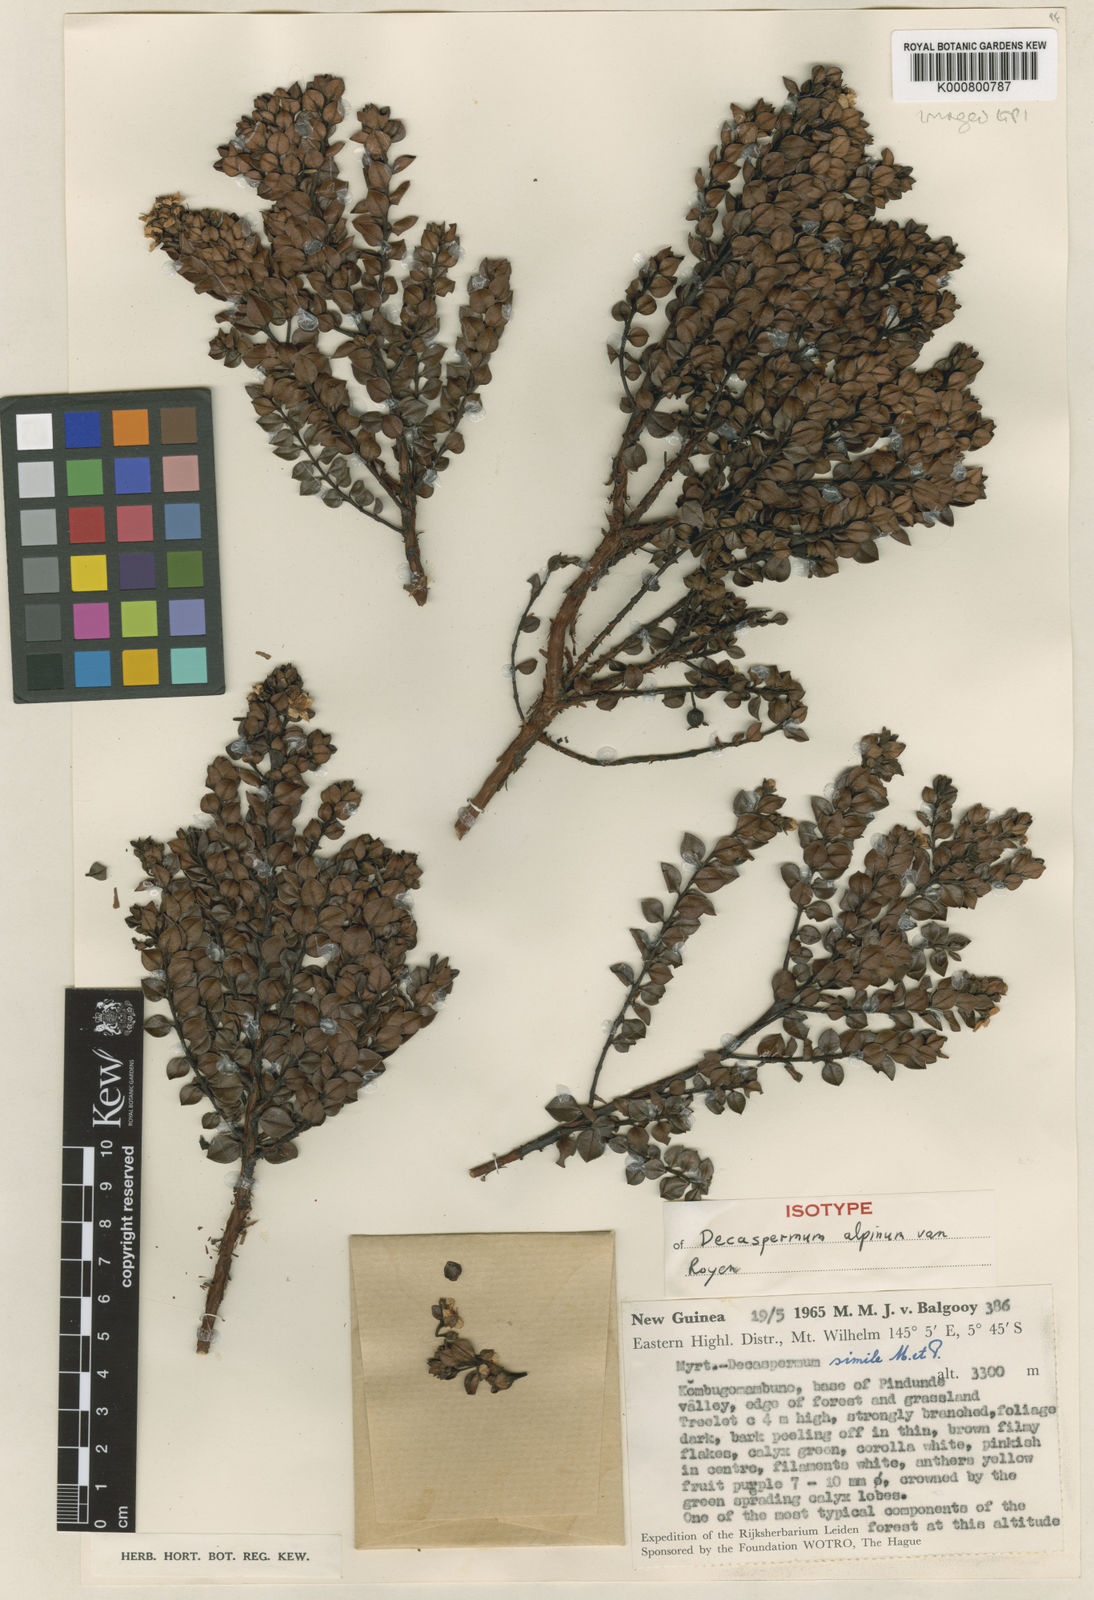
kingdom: Plantae
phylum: Tracheophyta
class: Magnoliopsida
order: Myrtales
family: Myrtaceae
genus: Decaspermum
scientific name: Decaspermum alpinum
